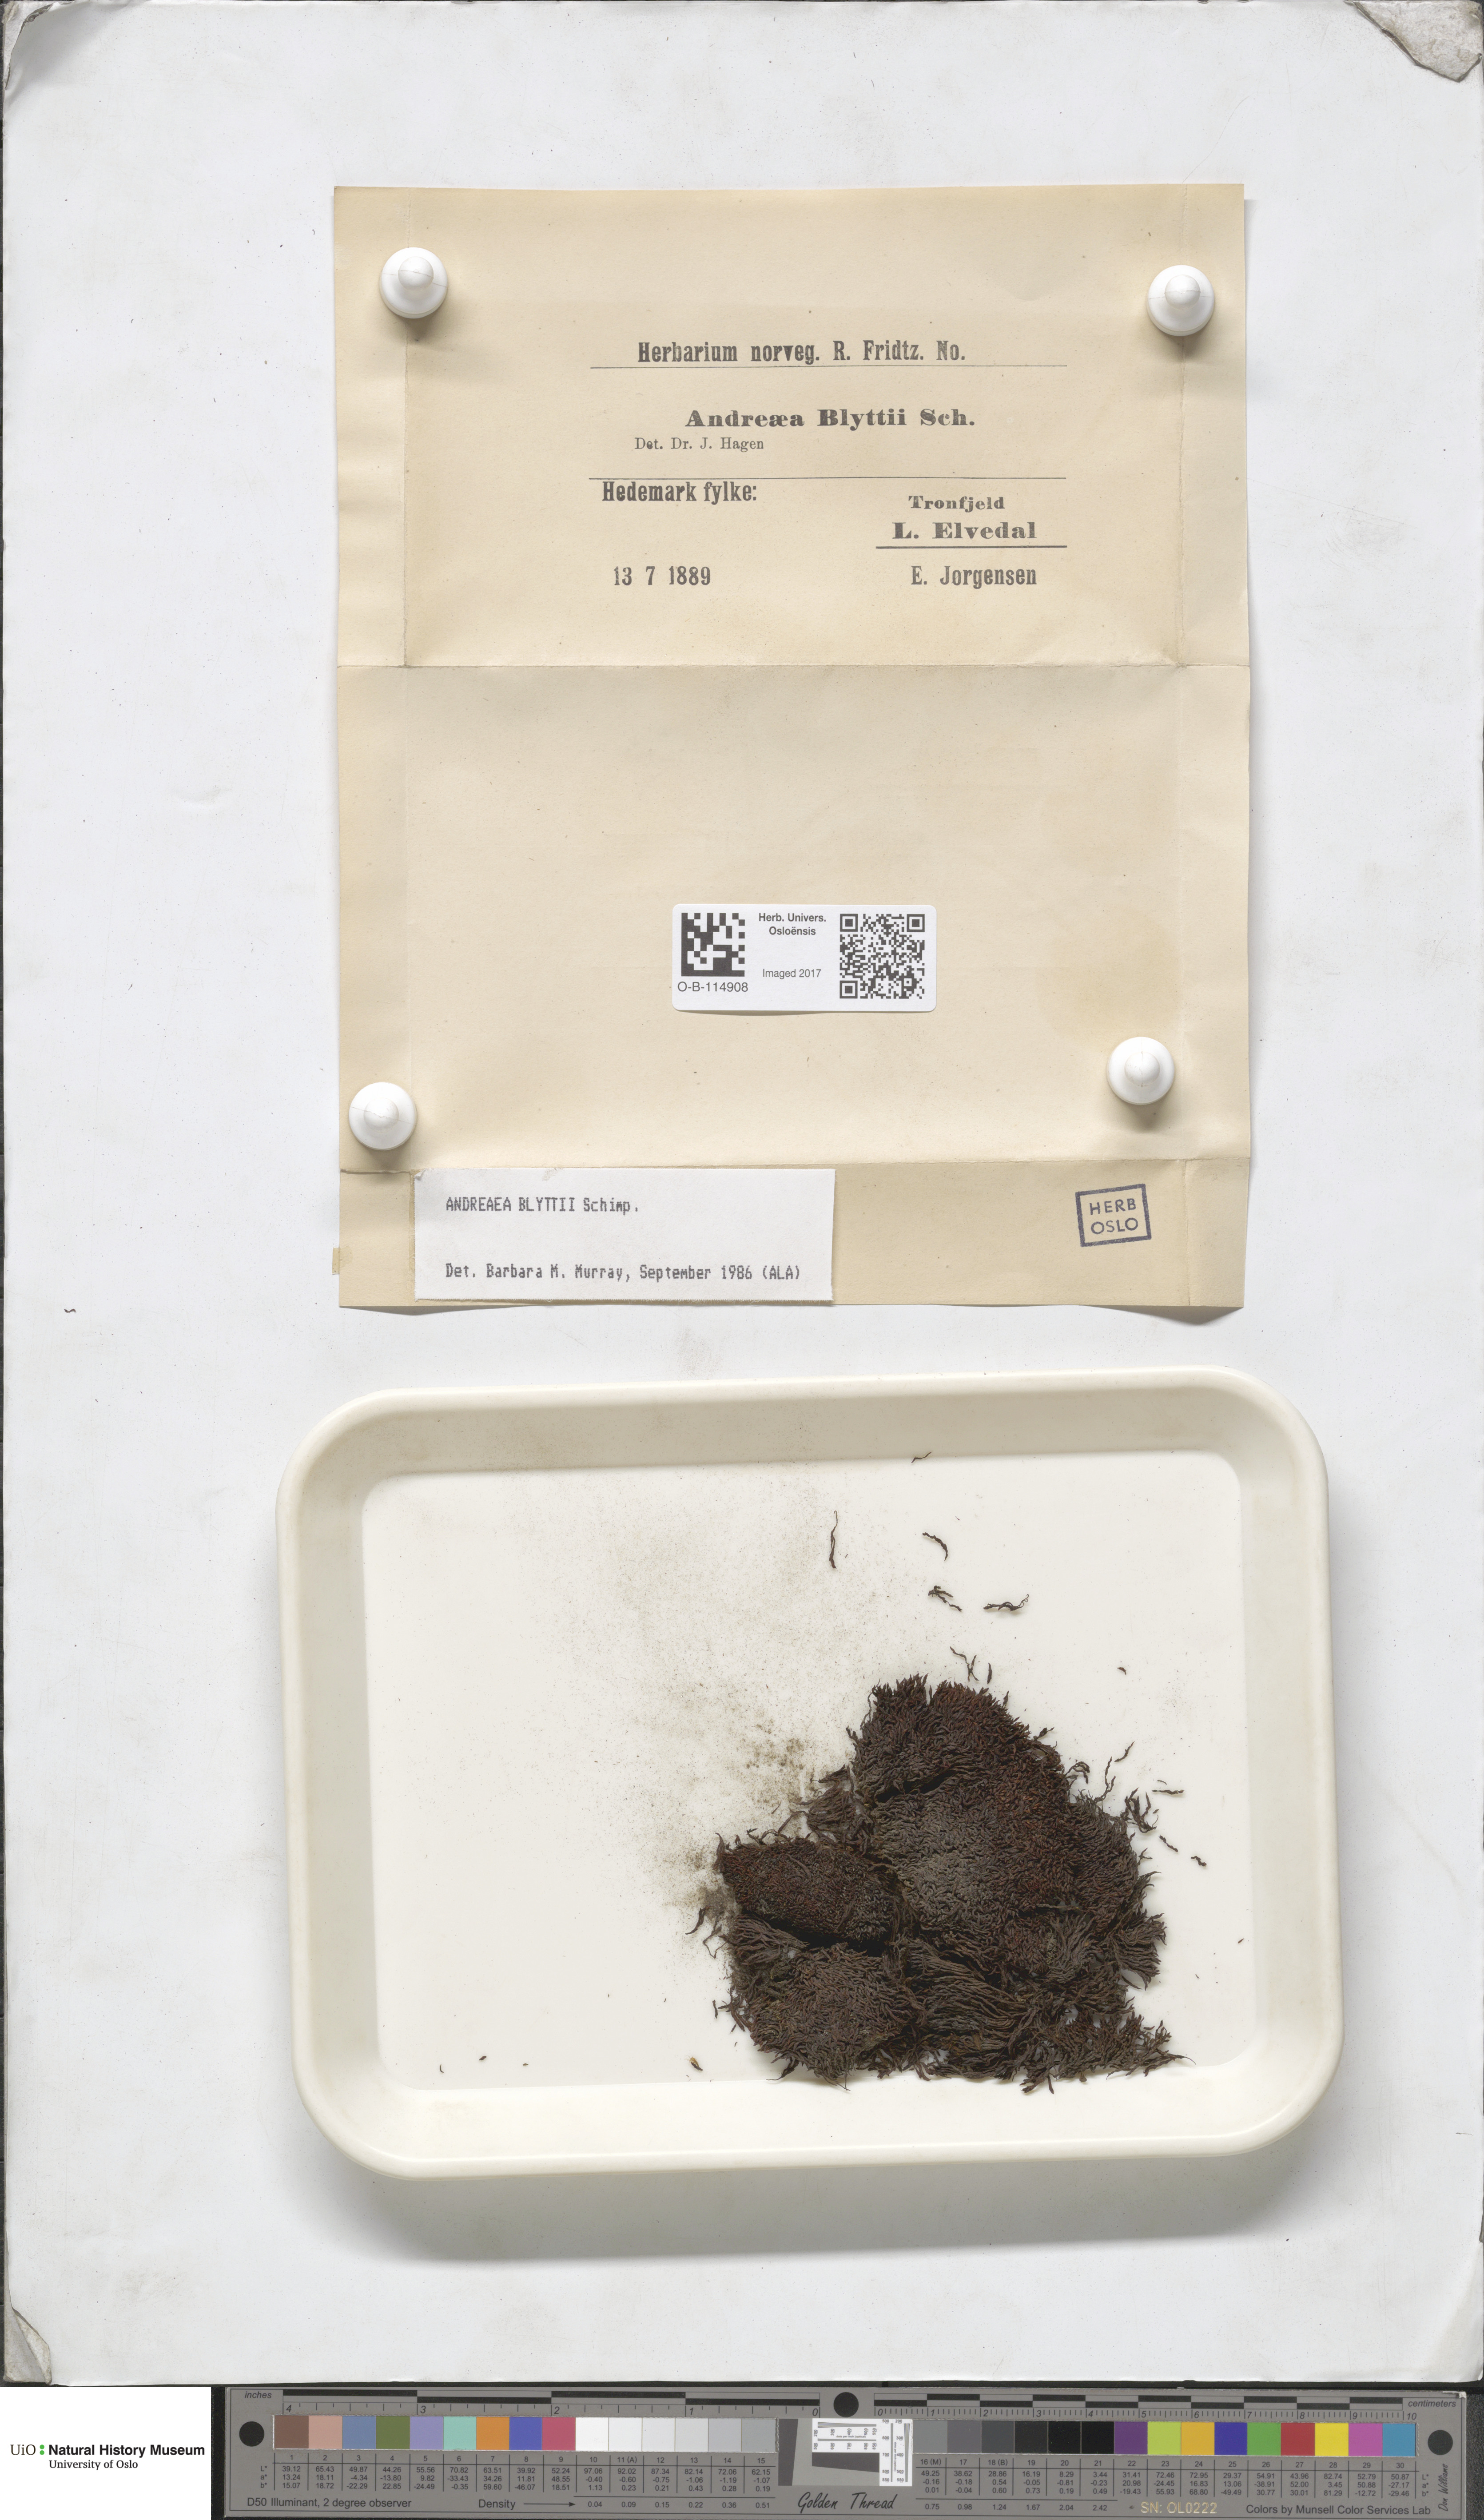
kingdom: Plantae
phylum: Bryophyta
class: Andreaeopsida
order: Andreaeales
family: Andreaeaceae
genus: Andreaea
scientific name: Andreaea hookeri
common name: Alpine rock-moss
